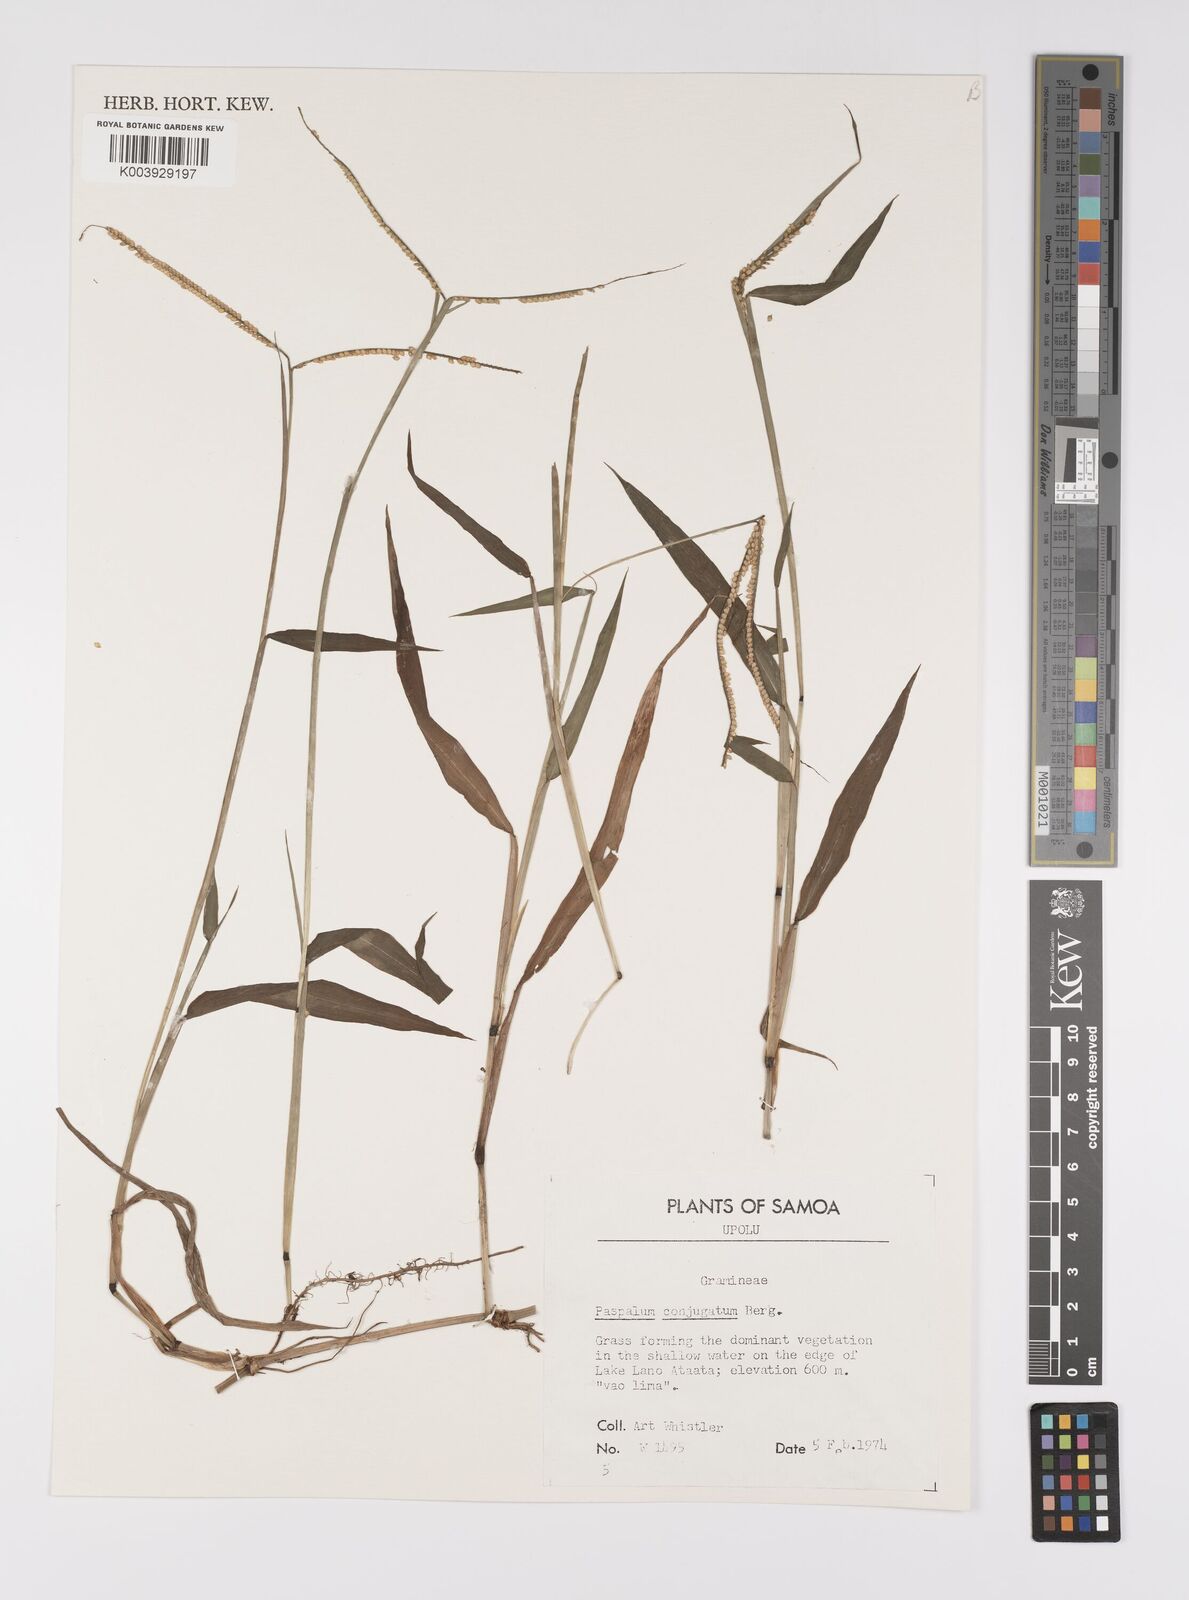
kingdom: Plantae
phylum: Tracheophyta
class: Liliopsida
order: Poales
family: Poaceae
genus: Paspalum
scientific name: Paspalum conjugatum
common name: Hilograss
